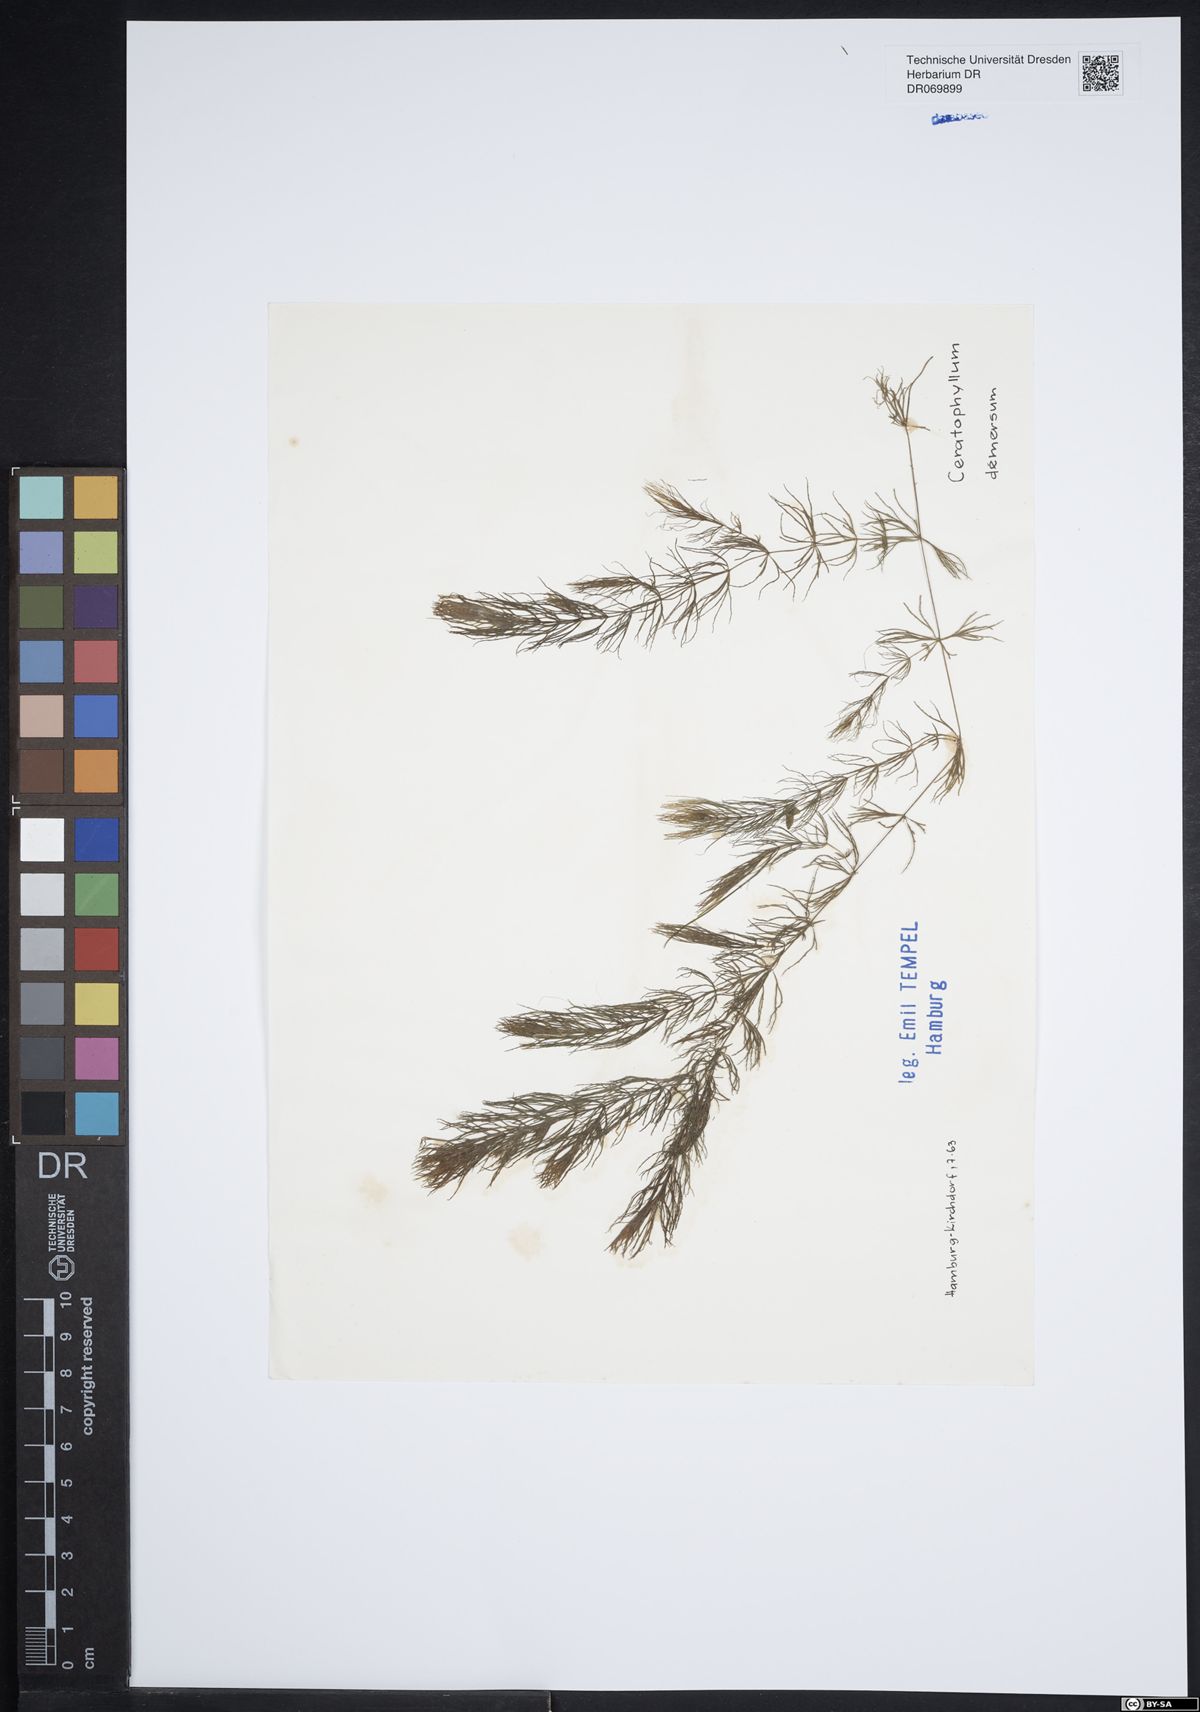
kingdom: Plantae
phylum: Tracheophyta
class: Magnoliopsida
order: Ceratophyllales
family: Ceratophyllaceae
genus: Ceratophyllum
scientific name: Ceratophyllum demersum
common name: Rigid hornwort
